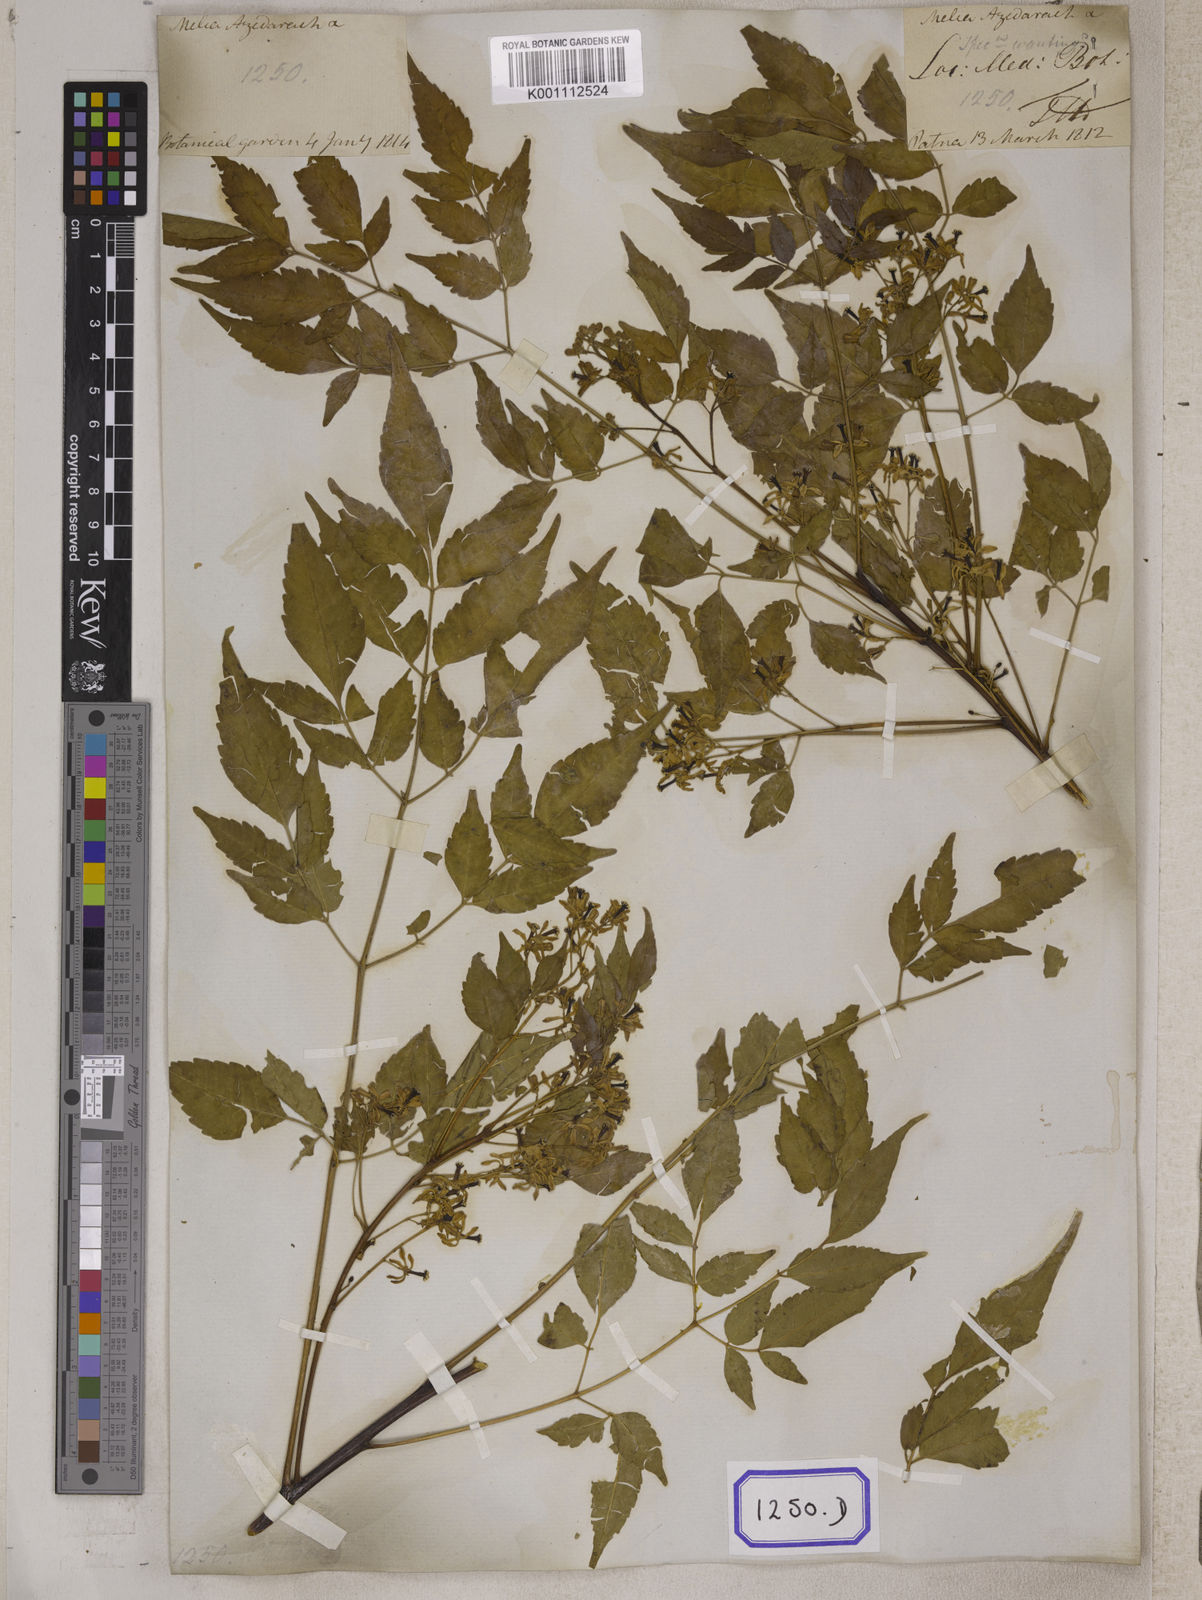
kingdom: Plantae
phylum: Tracheophyta
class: Magnoliopsida
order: Sapindales
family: Meliaceae
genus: Melia
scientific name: Melia azedarach
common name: Chinaberrytree
